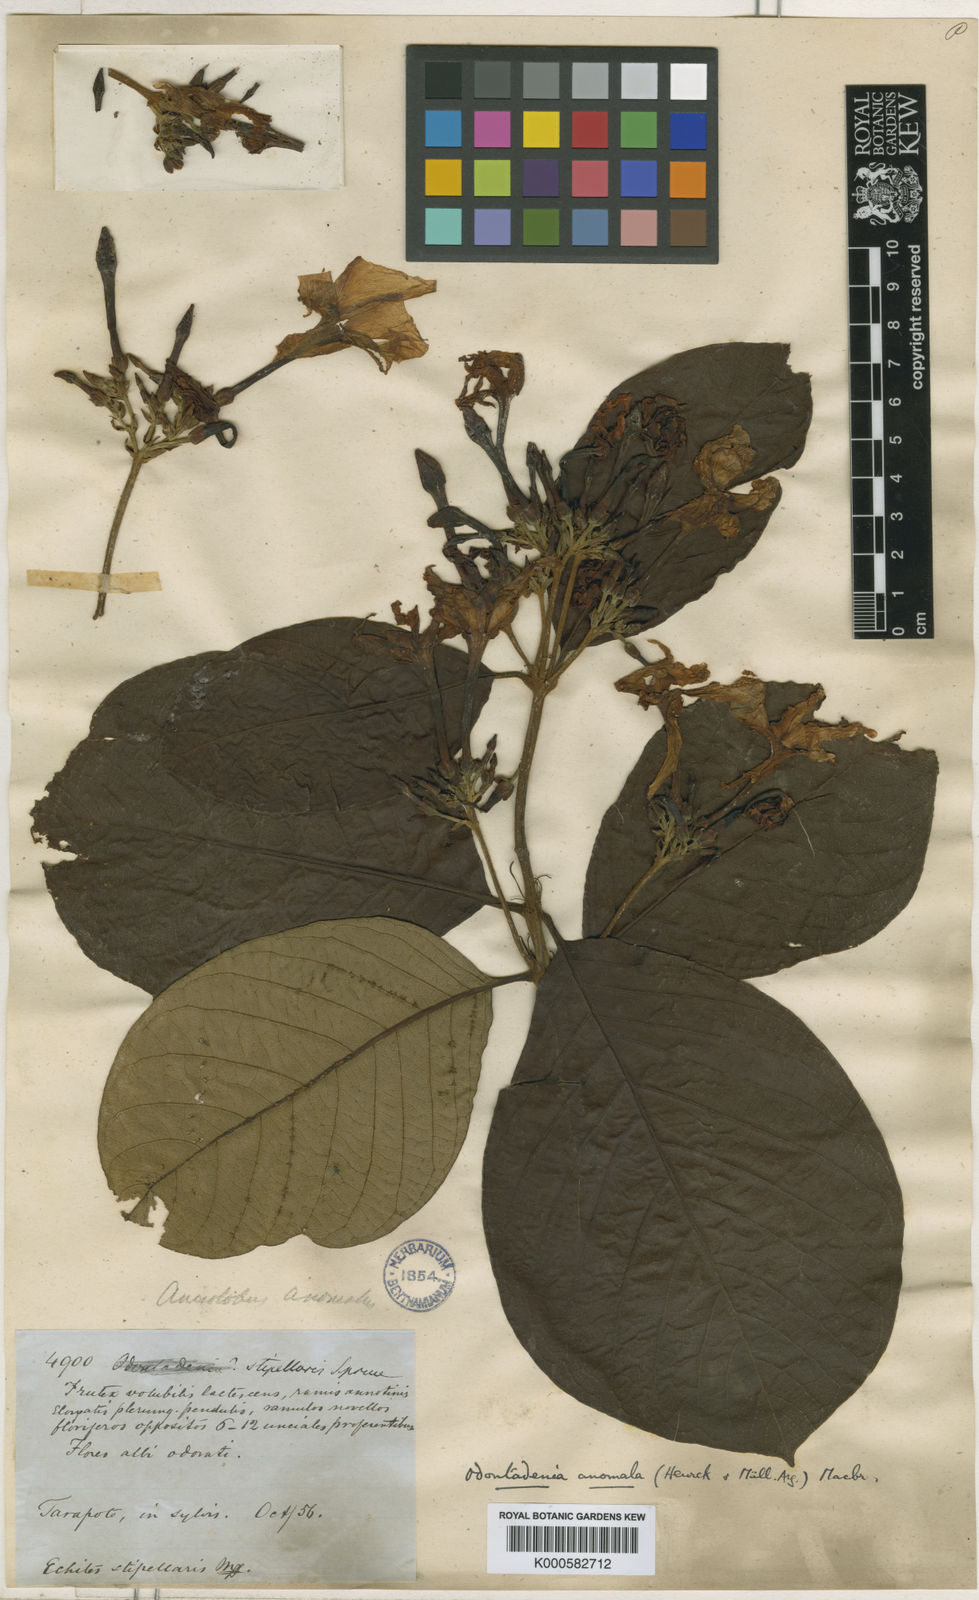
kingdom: Plantae
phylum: Tracheophyta
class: Magnoliopsida
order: Gentianales
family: Apocynaceae
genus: Odontadenia
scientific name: Odontadenia
